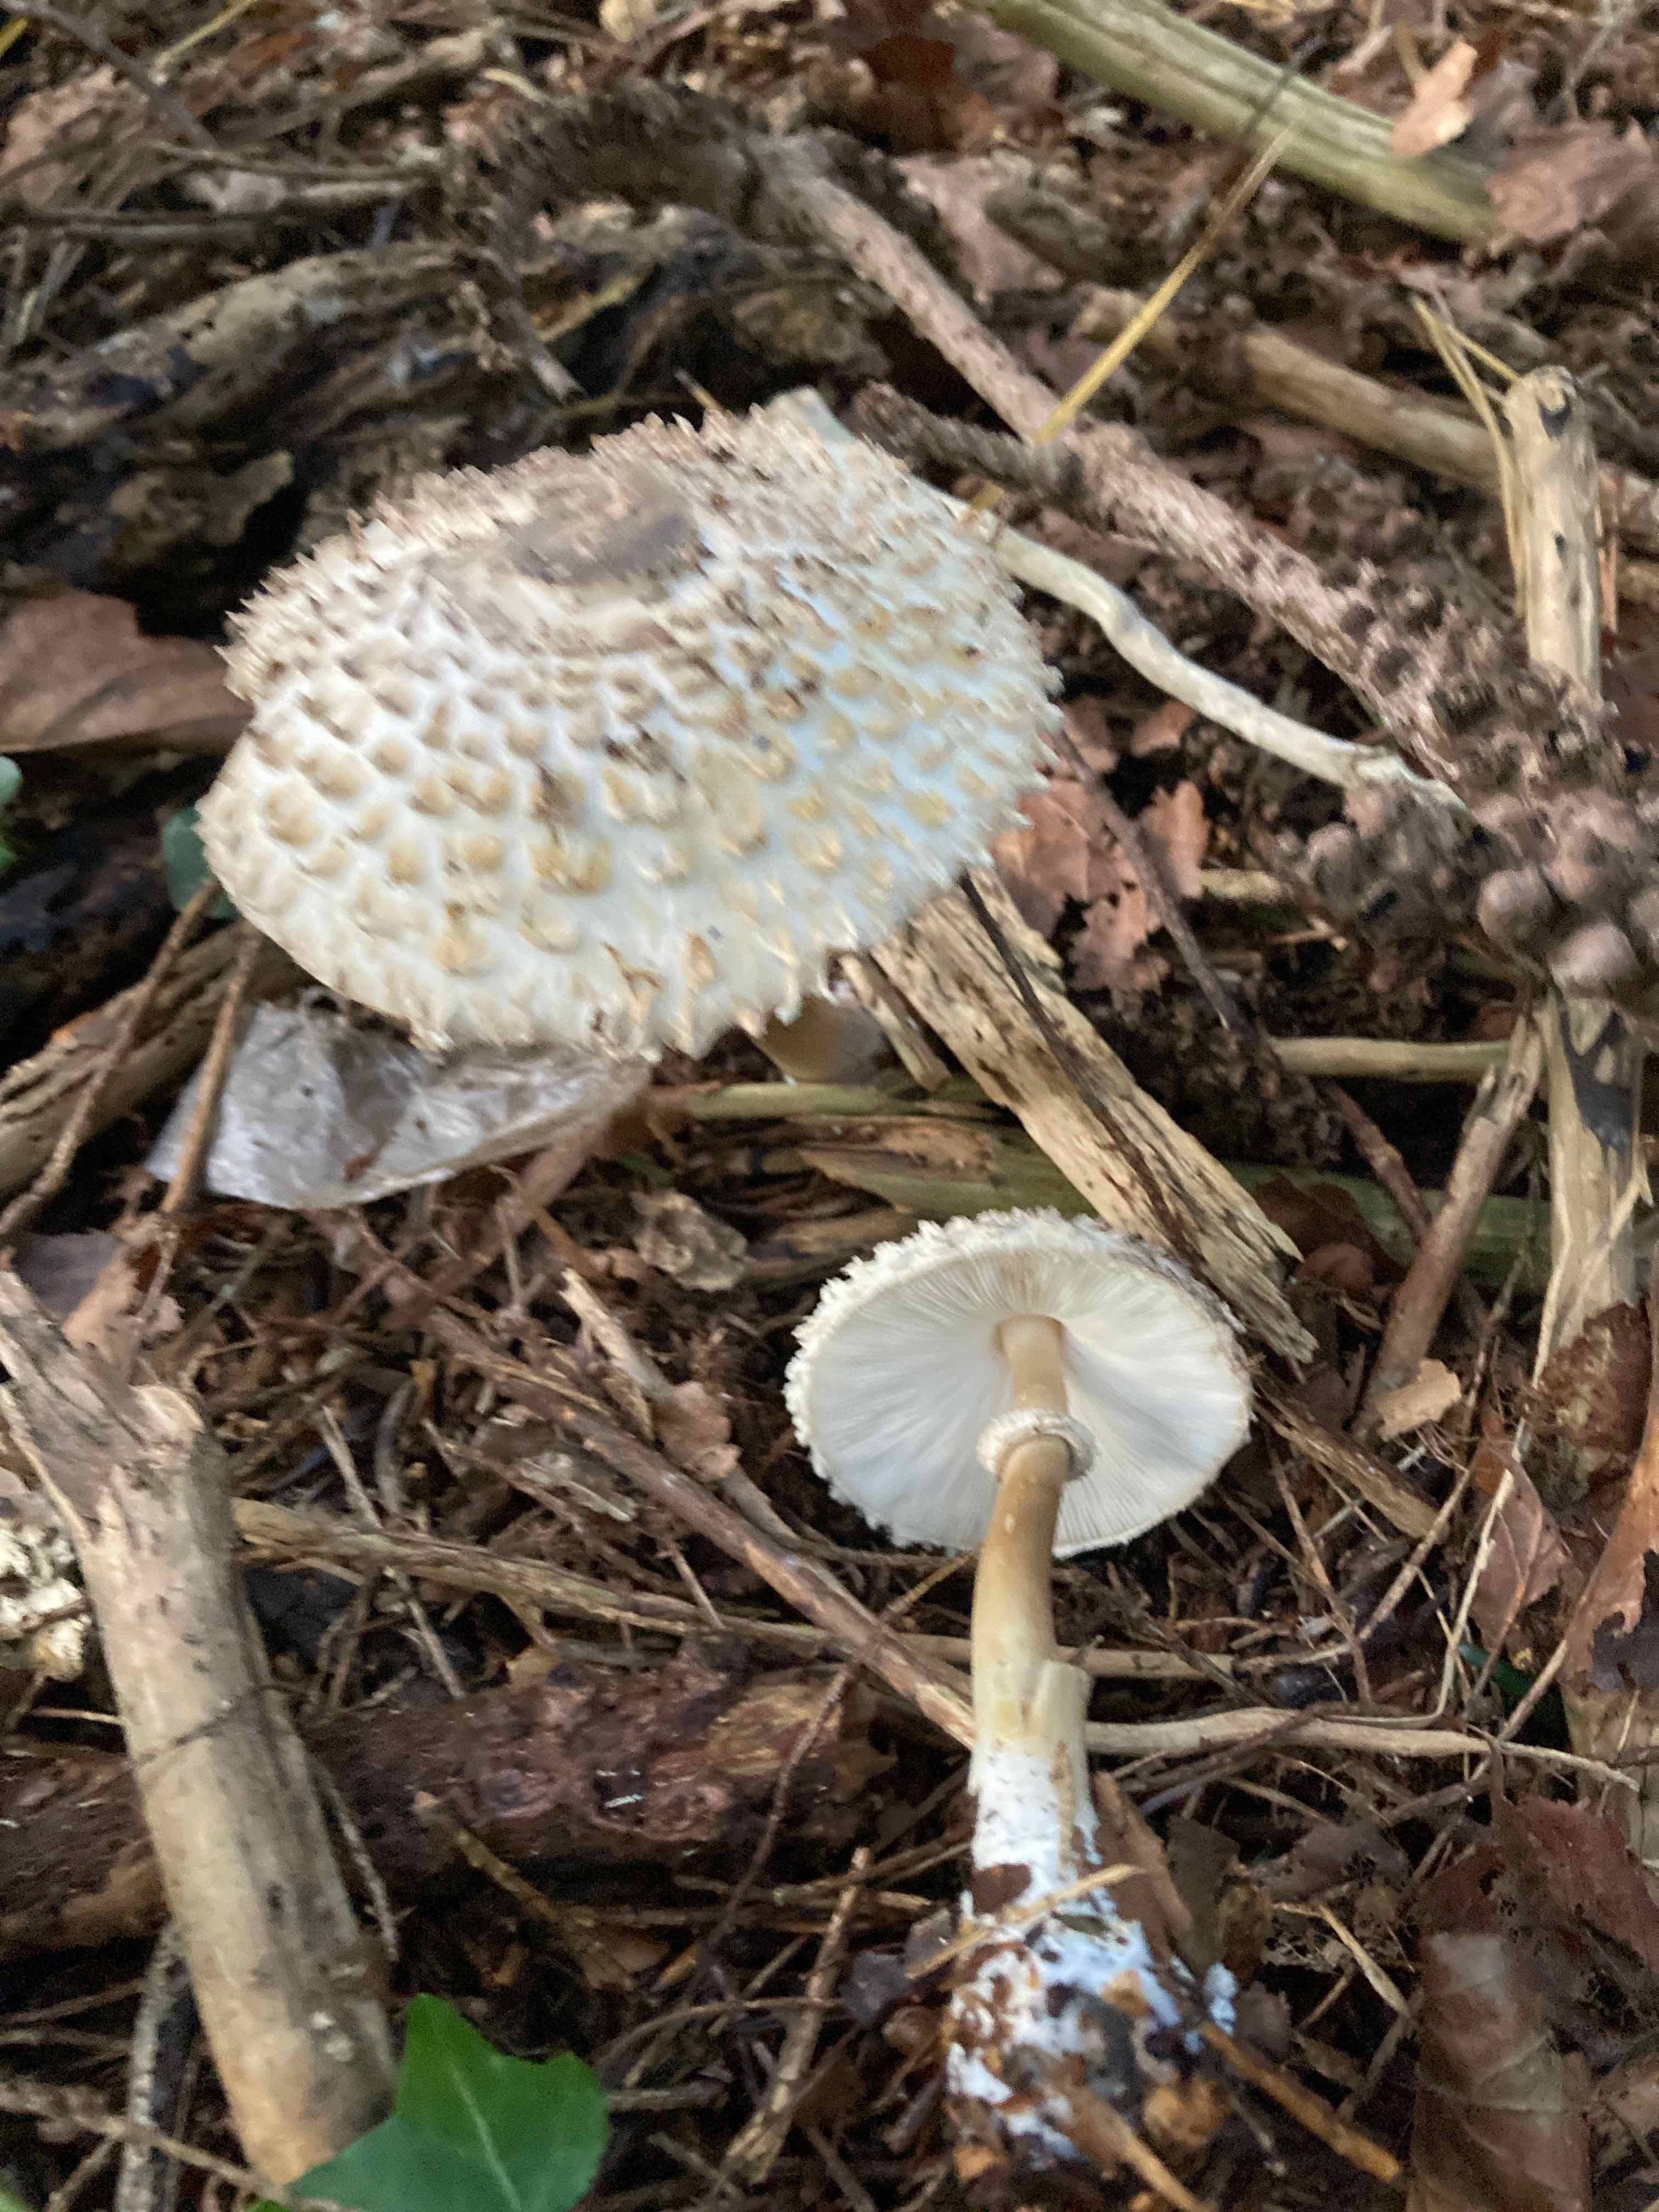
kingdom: Fungi
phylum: Basidiomycota
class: Agaricomycetes
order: Agaricales
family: Agaricaceae
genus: Leucoagaricus
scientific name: Leucoagaricus nympharum
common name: gran-silkehat
